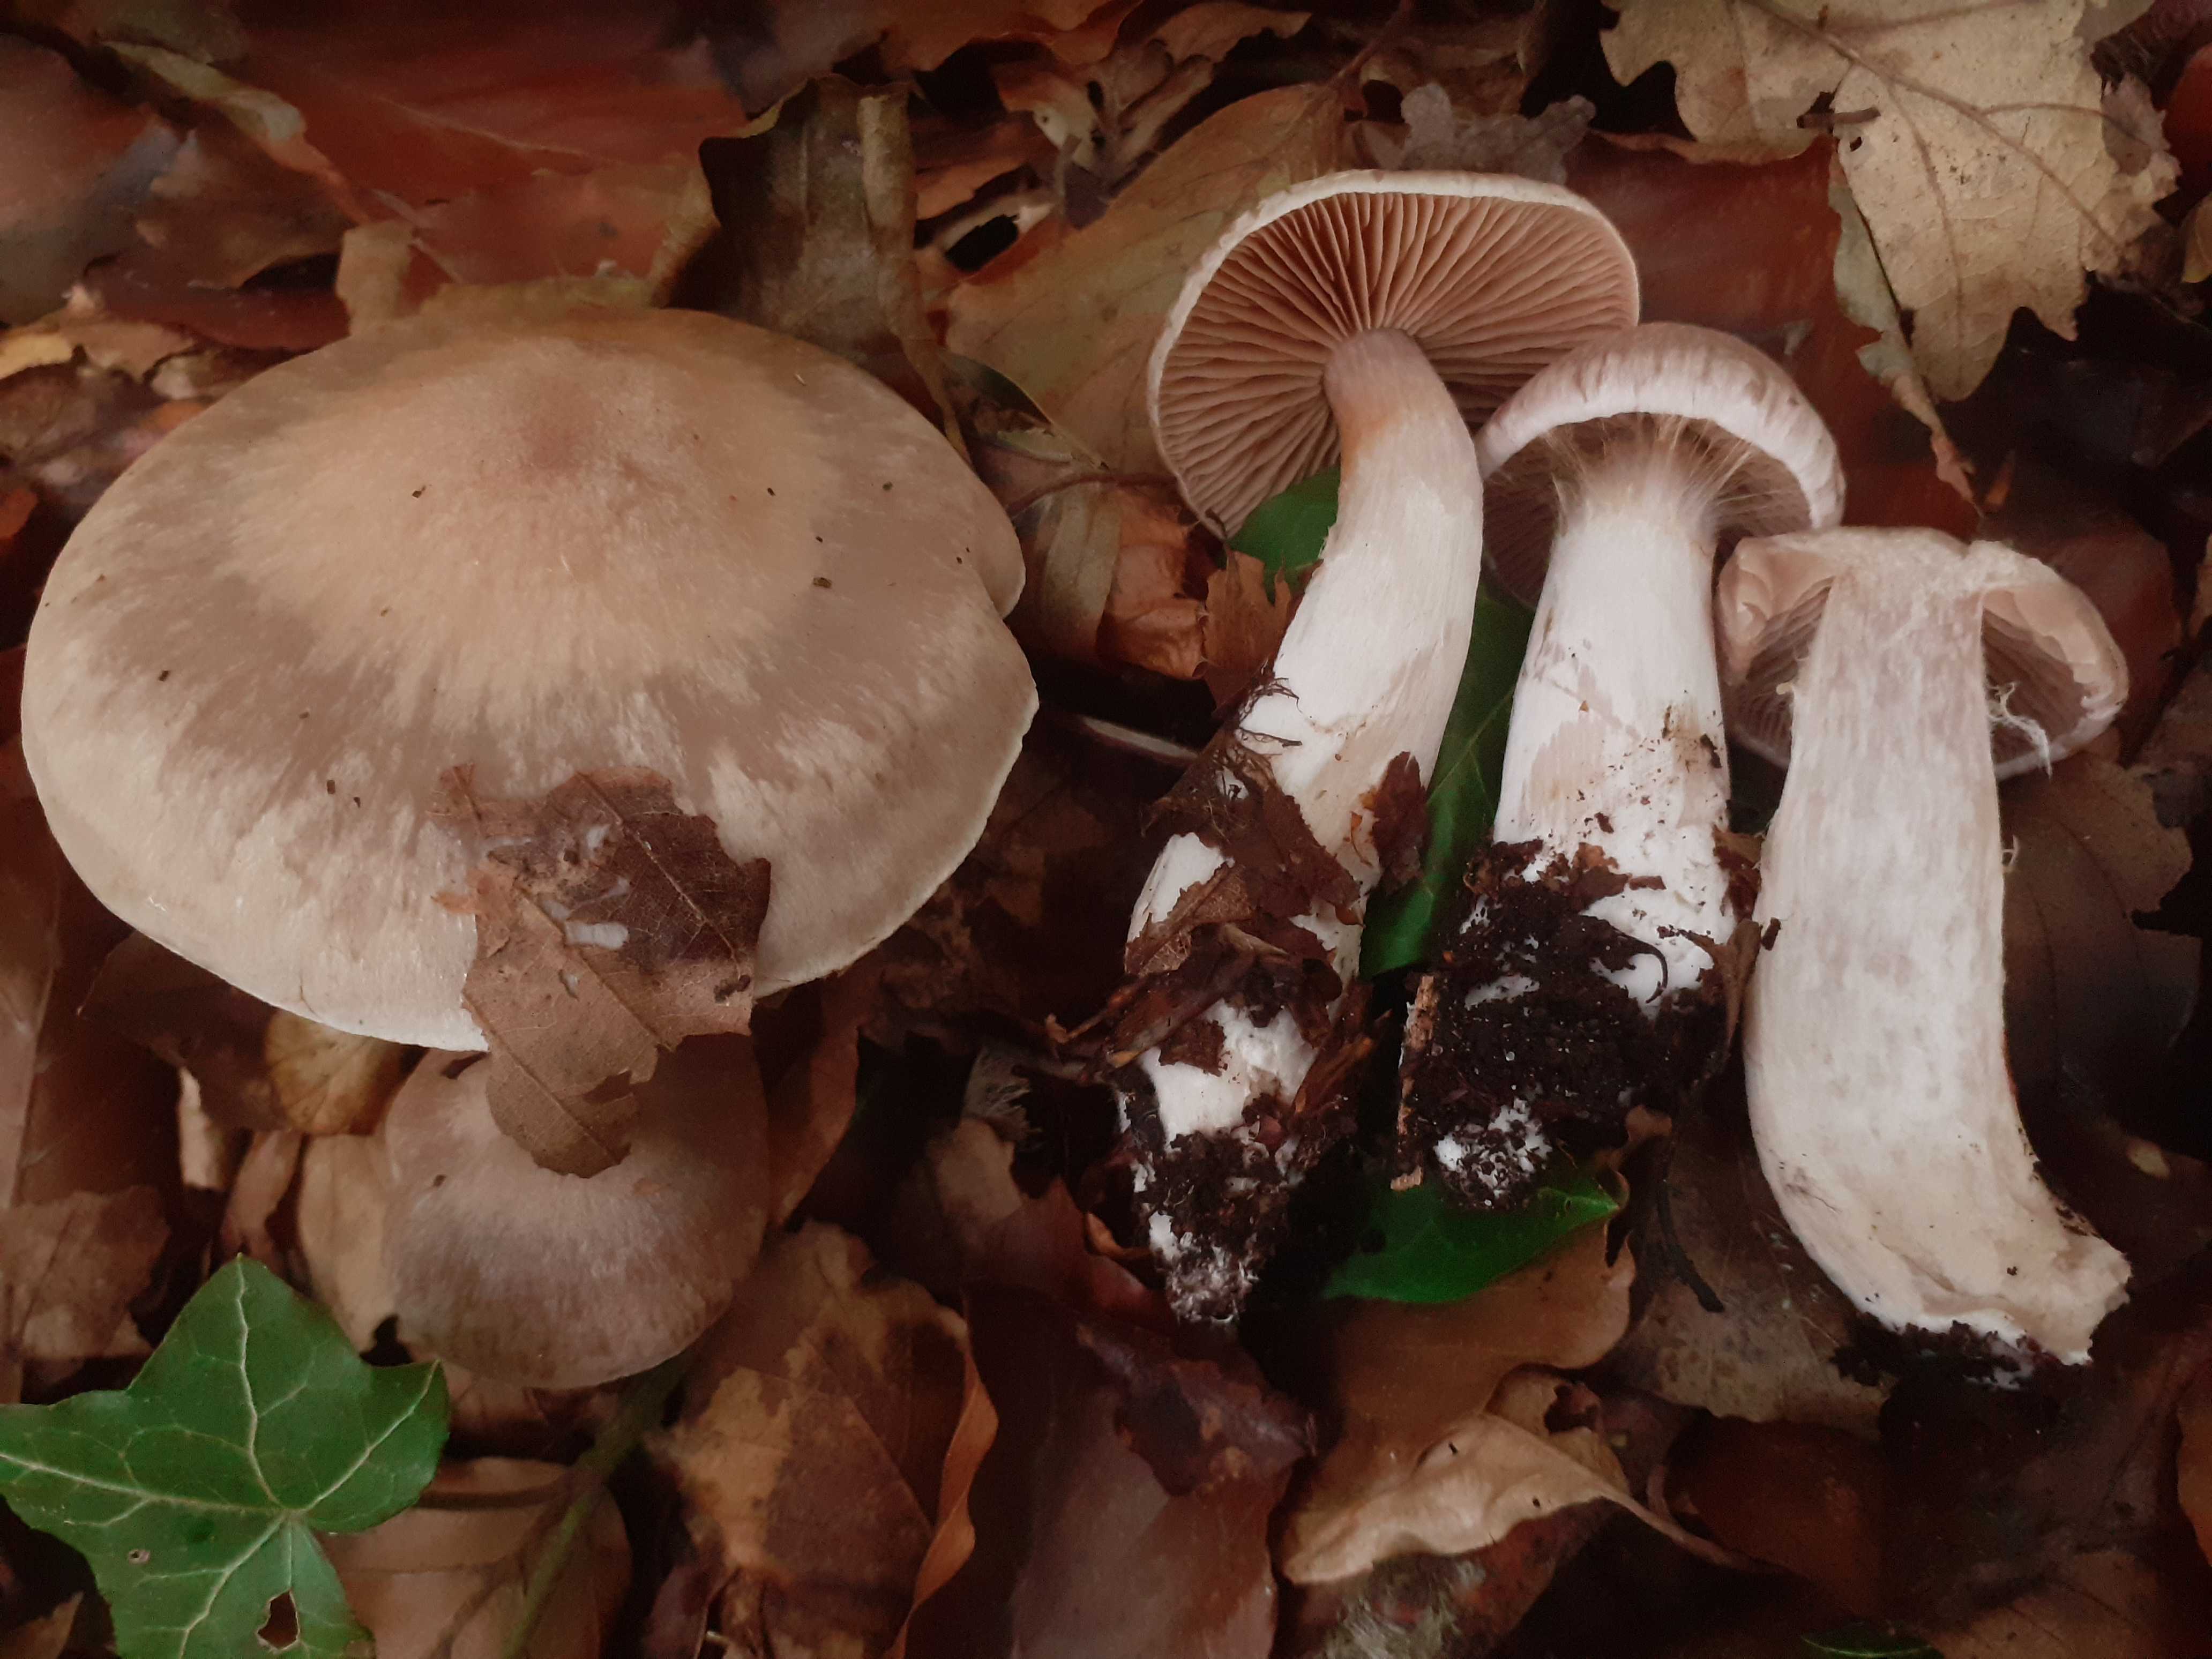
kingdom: Fungi
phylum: Basidiomycota
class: Agaricomycetes
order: Agaricales
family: Cortinariaceae
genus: Cortinarius
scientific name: Cortinarius turgidus
